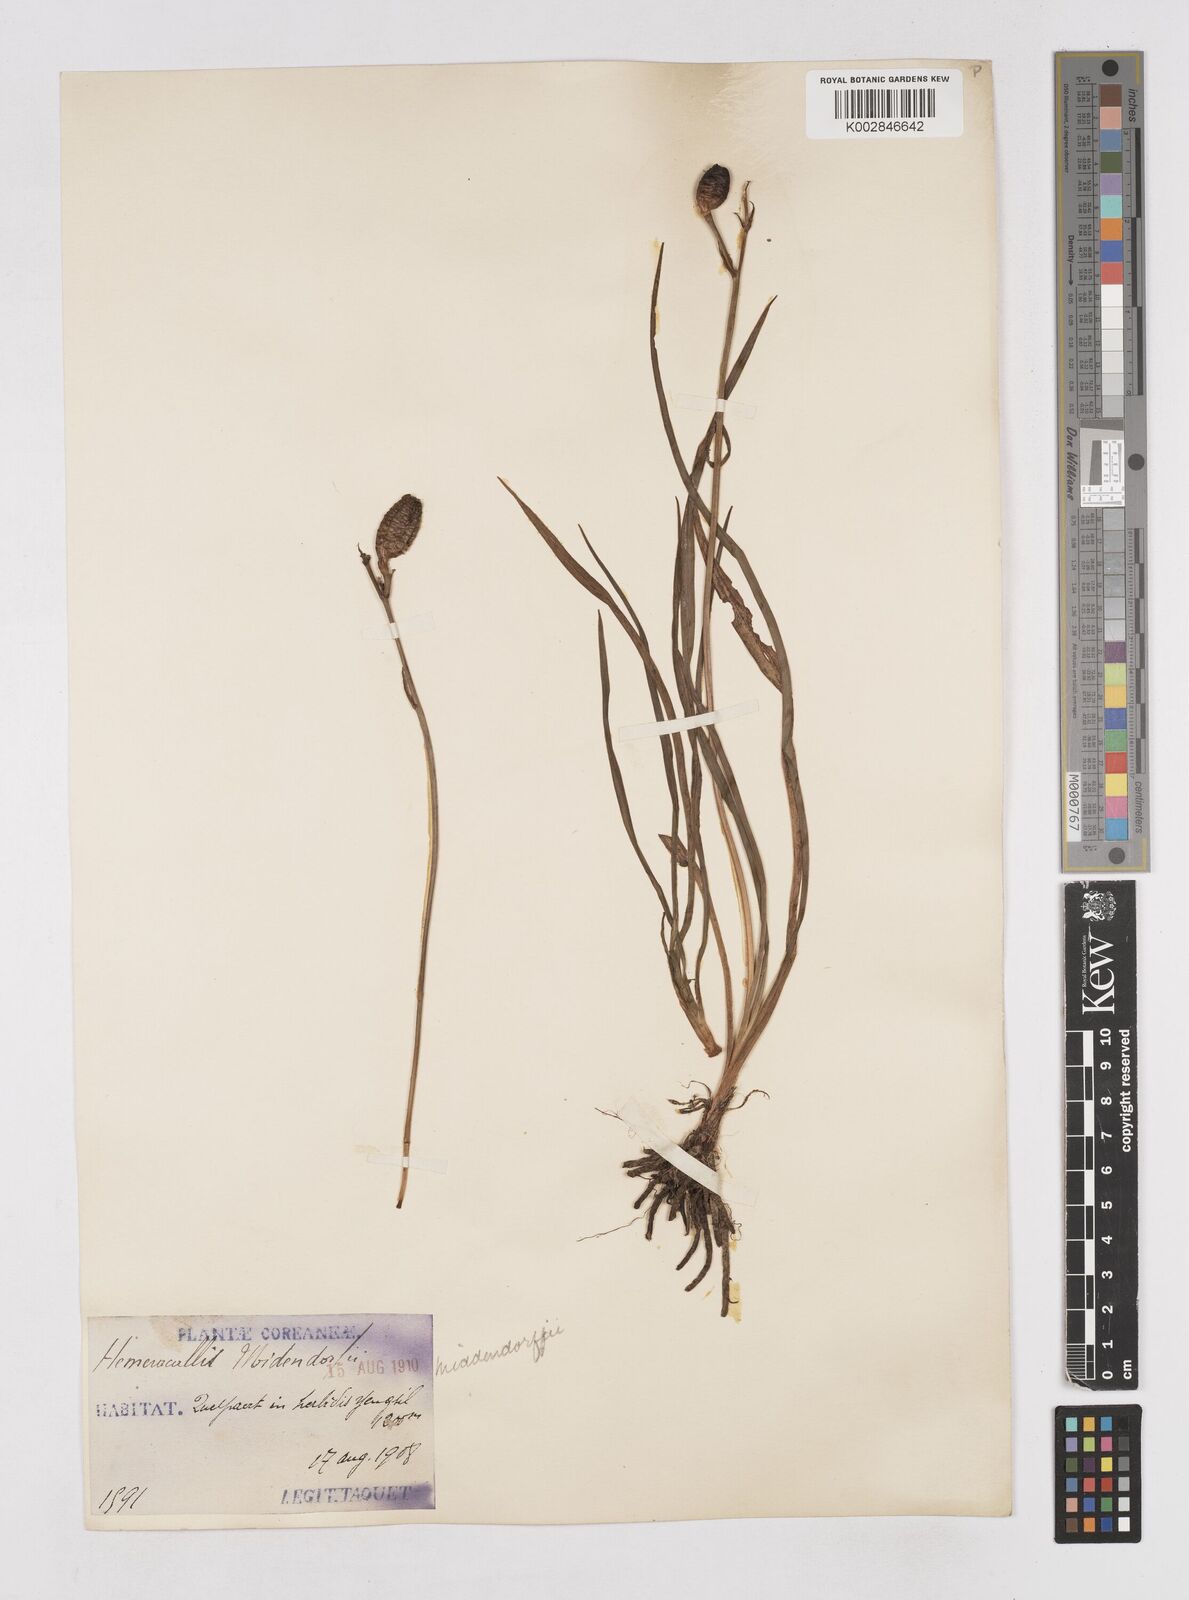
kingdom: Plantae
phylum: Tracheophyta
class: Liliopsida
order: Asparagales
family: Asphodelaceae
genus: Hemerocallis
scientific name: Hemerocallis minor
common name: Small daylily
